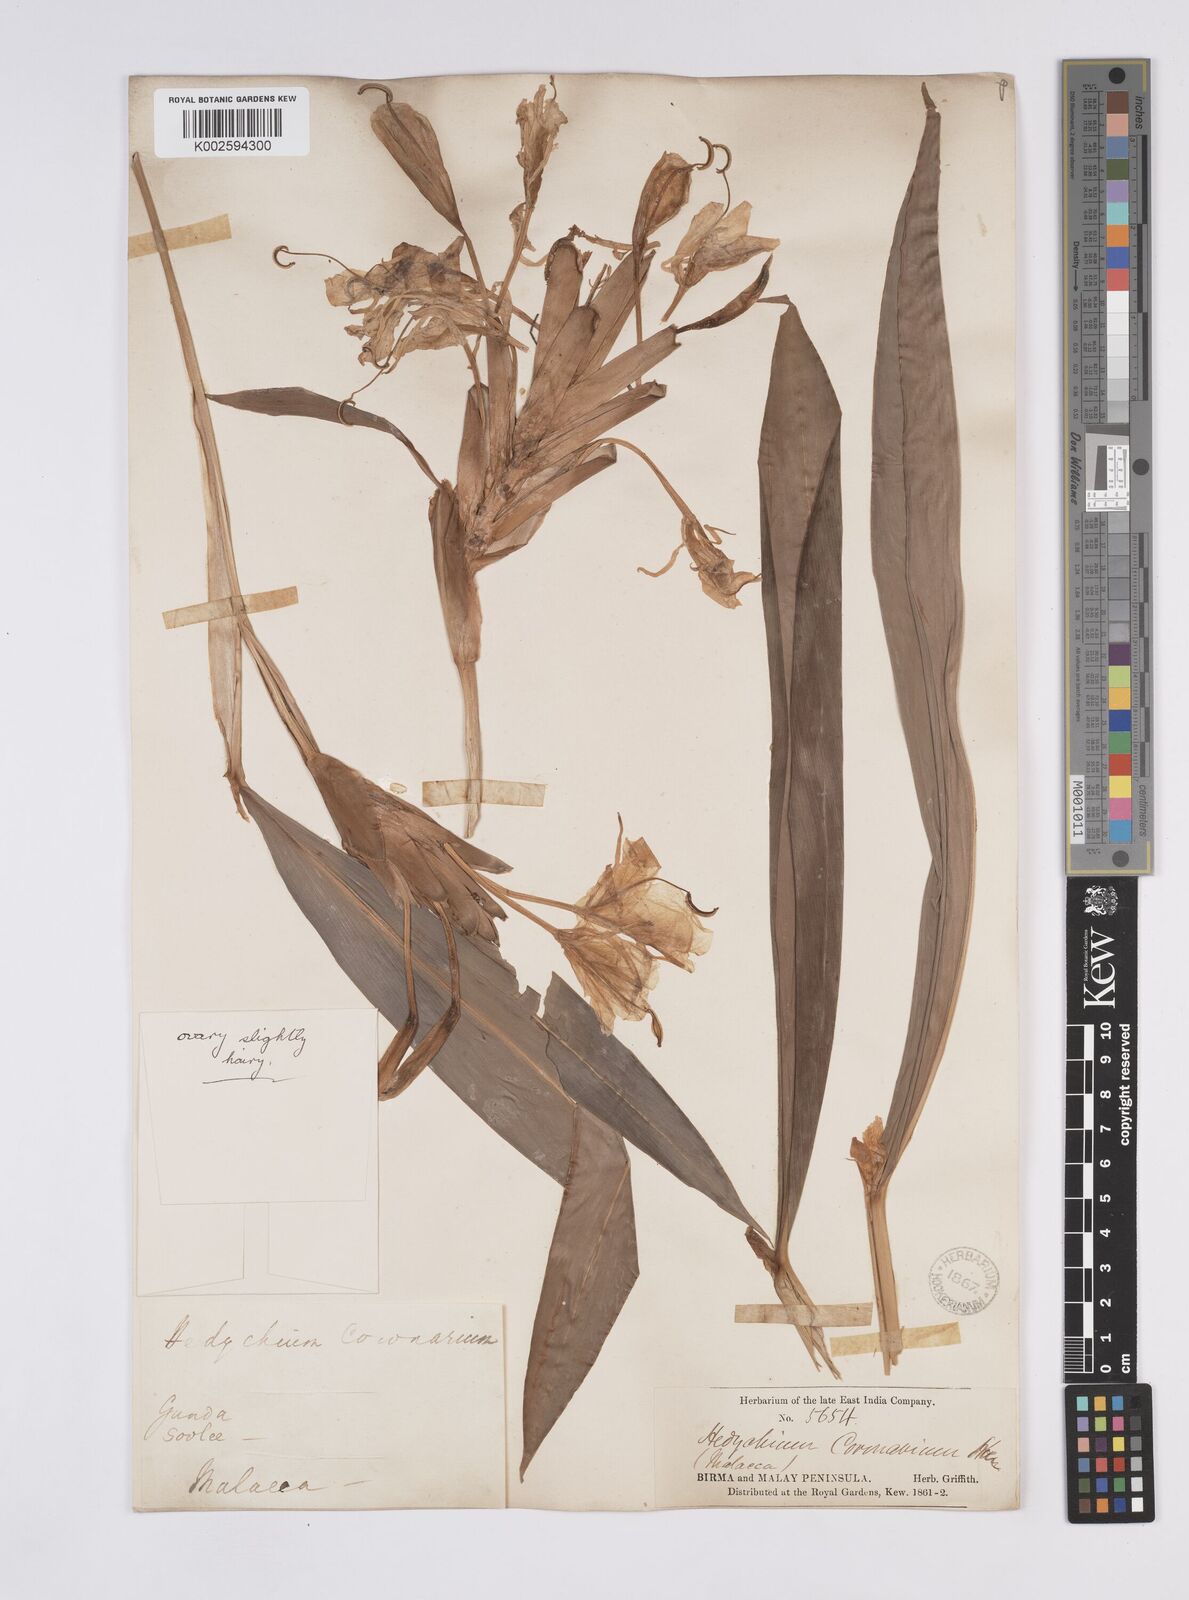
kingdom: Plantae
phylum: Tracheophyta
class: Liliopsida
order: Zingiberales
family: Zingiberaceae
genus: Hedychium
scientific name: Hedychium coronarium
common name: White garland-lily
